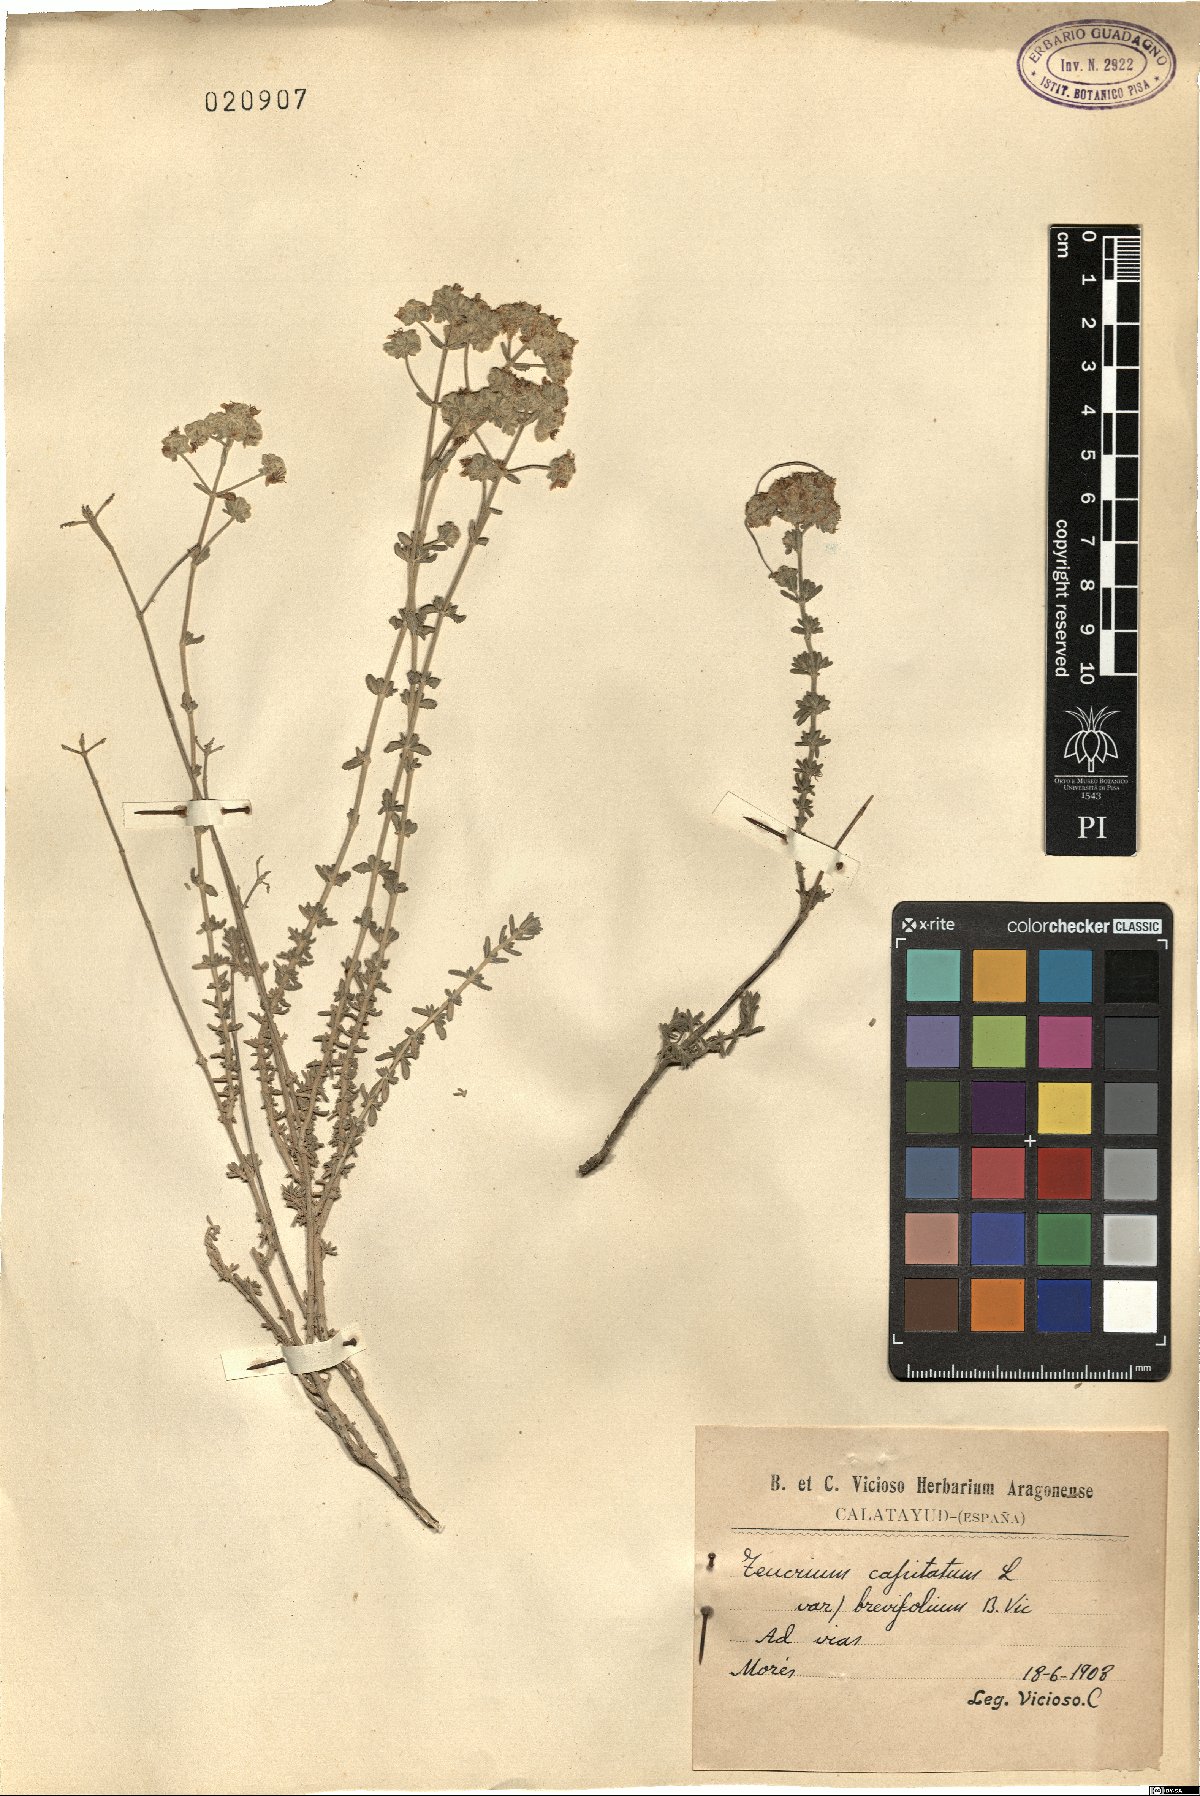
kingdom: Plantae
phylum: Tracheophyta
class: Magnoliopsida
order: Lamiales
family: Lamiaceae
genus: Teucrium
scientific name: Teucrium capitatum
